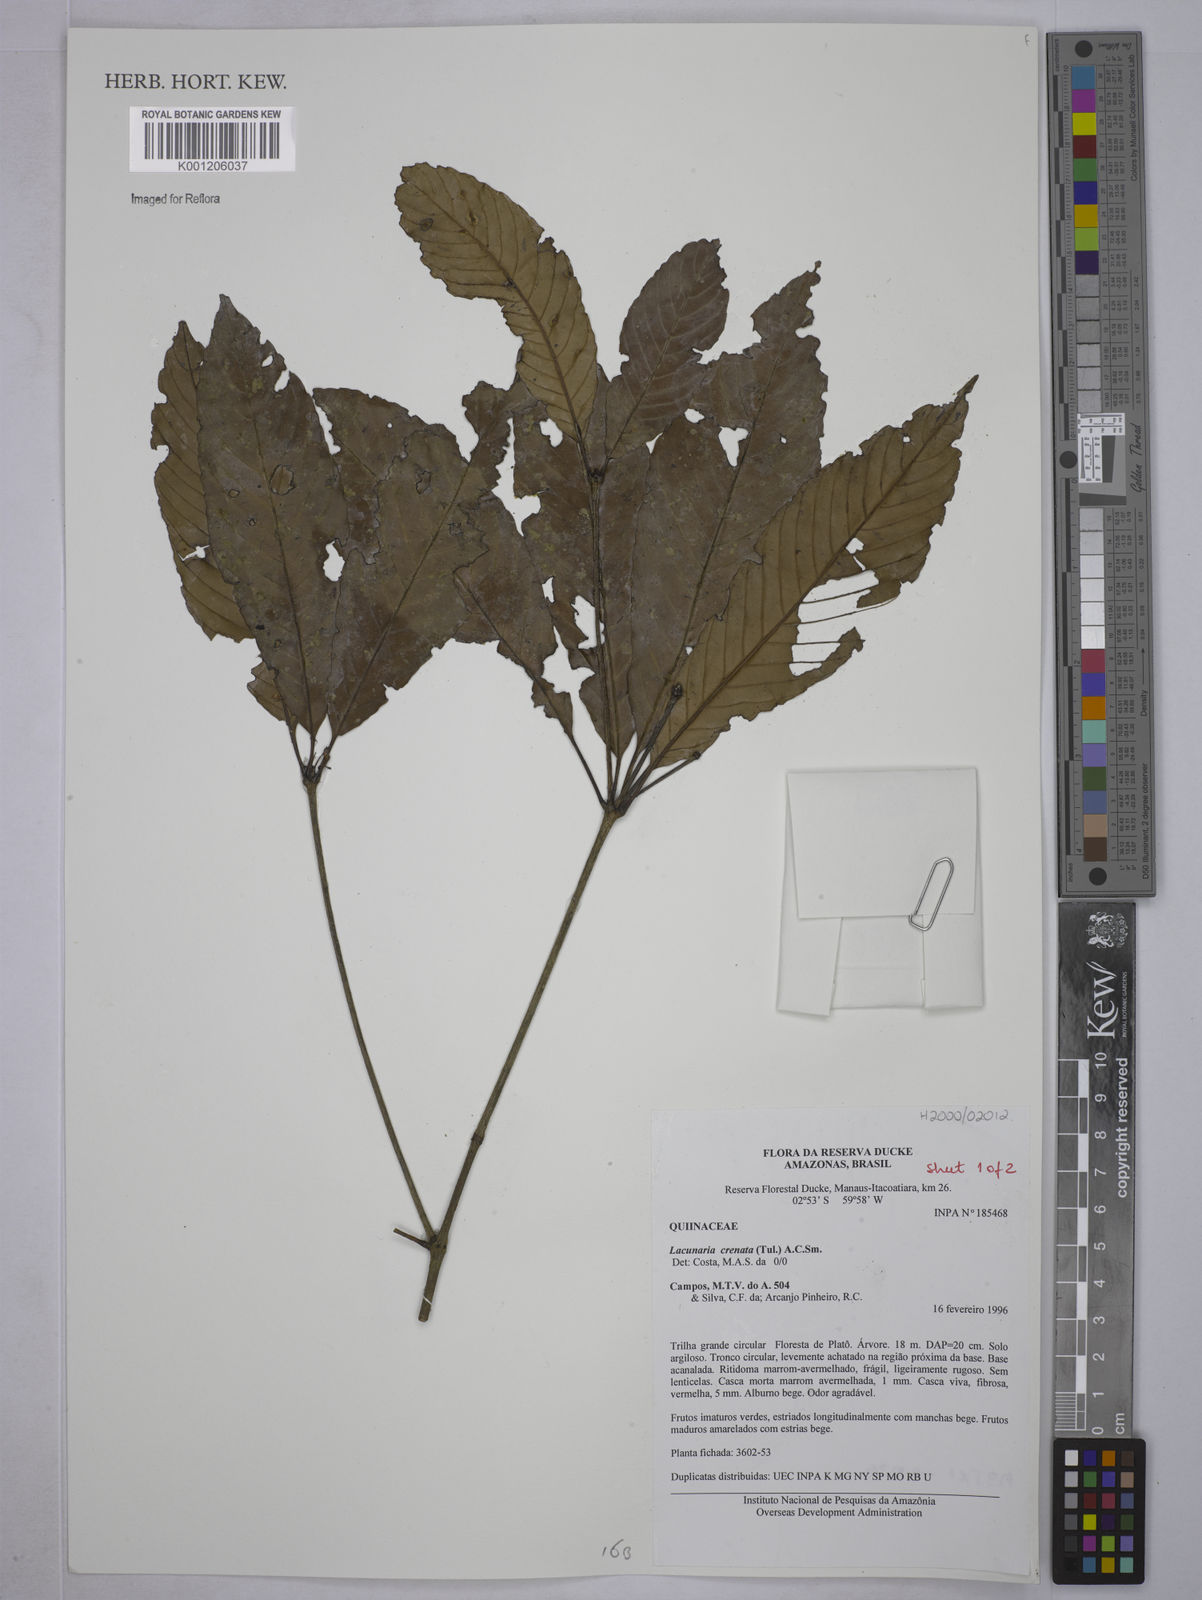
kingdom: Plantae
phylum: Tracheophyta
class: Magnoliopsida
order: Malpighiales
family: Quiinaceae
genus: Lacunaria
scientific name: Lacunaria crenata
